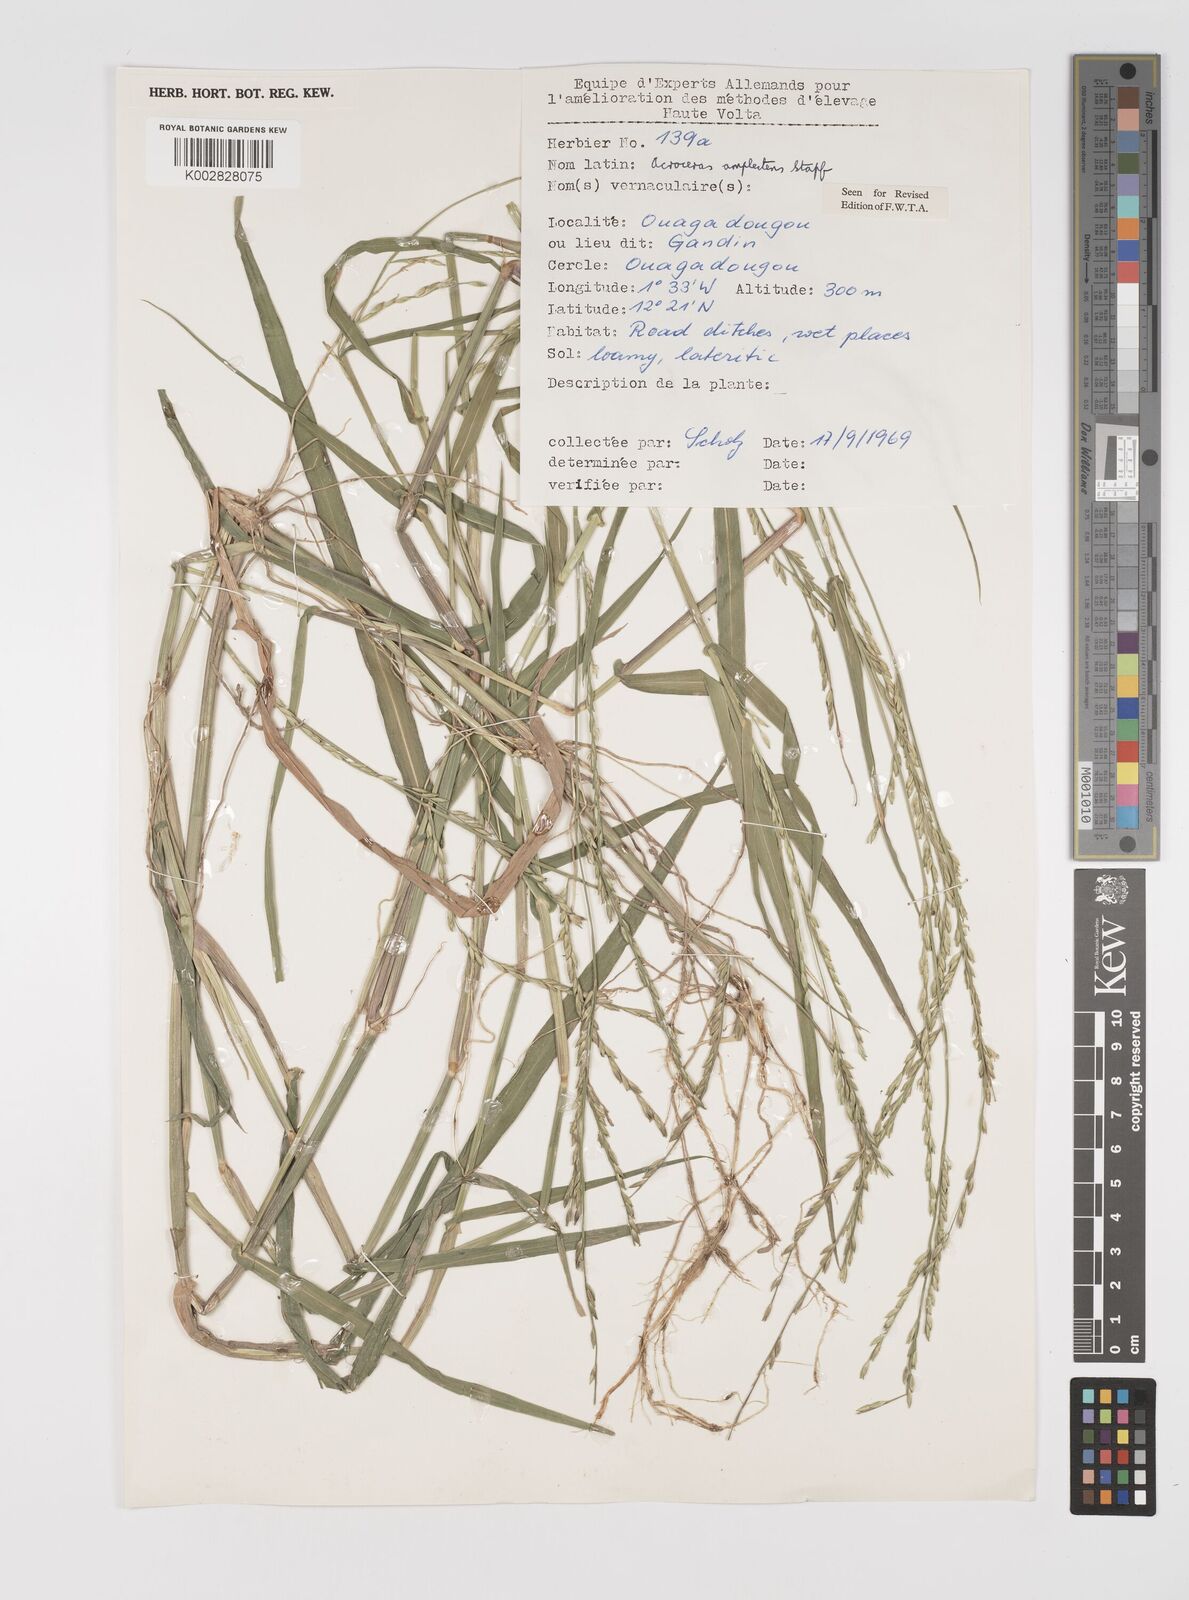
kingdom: Plantae
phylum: Tracheophyta
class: Liliopsida
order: Poales
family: Poaceae
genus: Acroceras
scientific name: Acroceras amplectens
